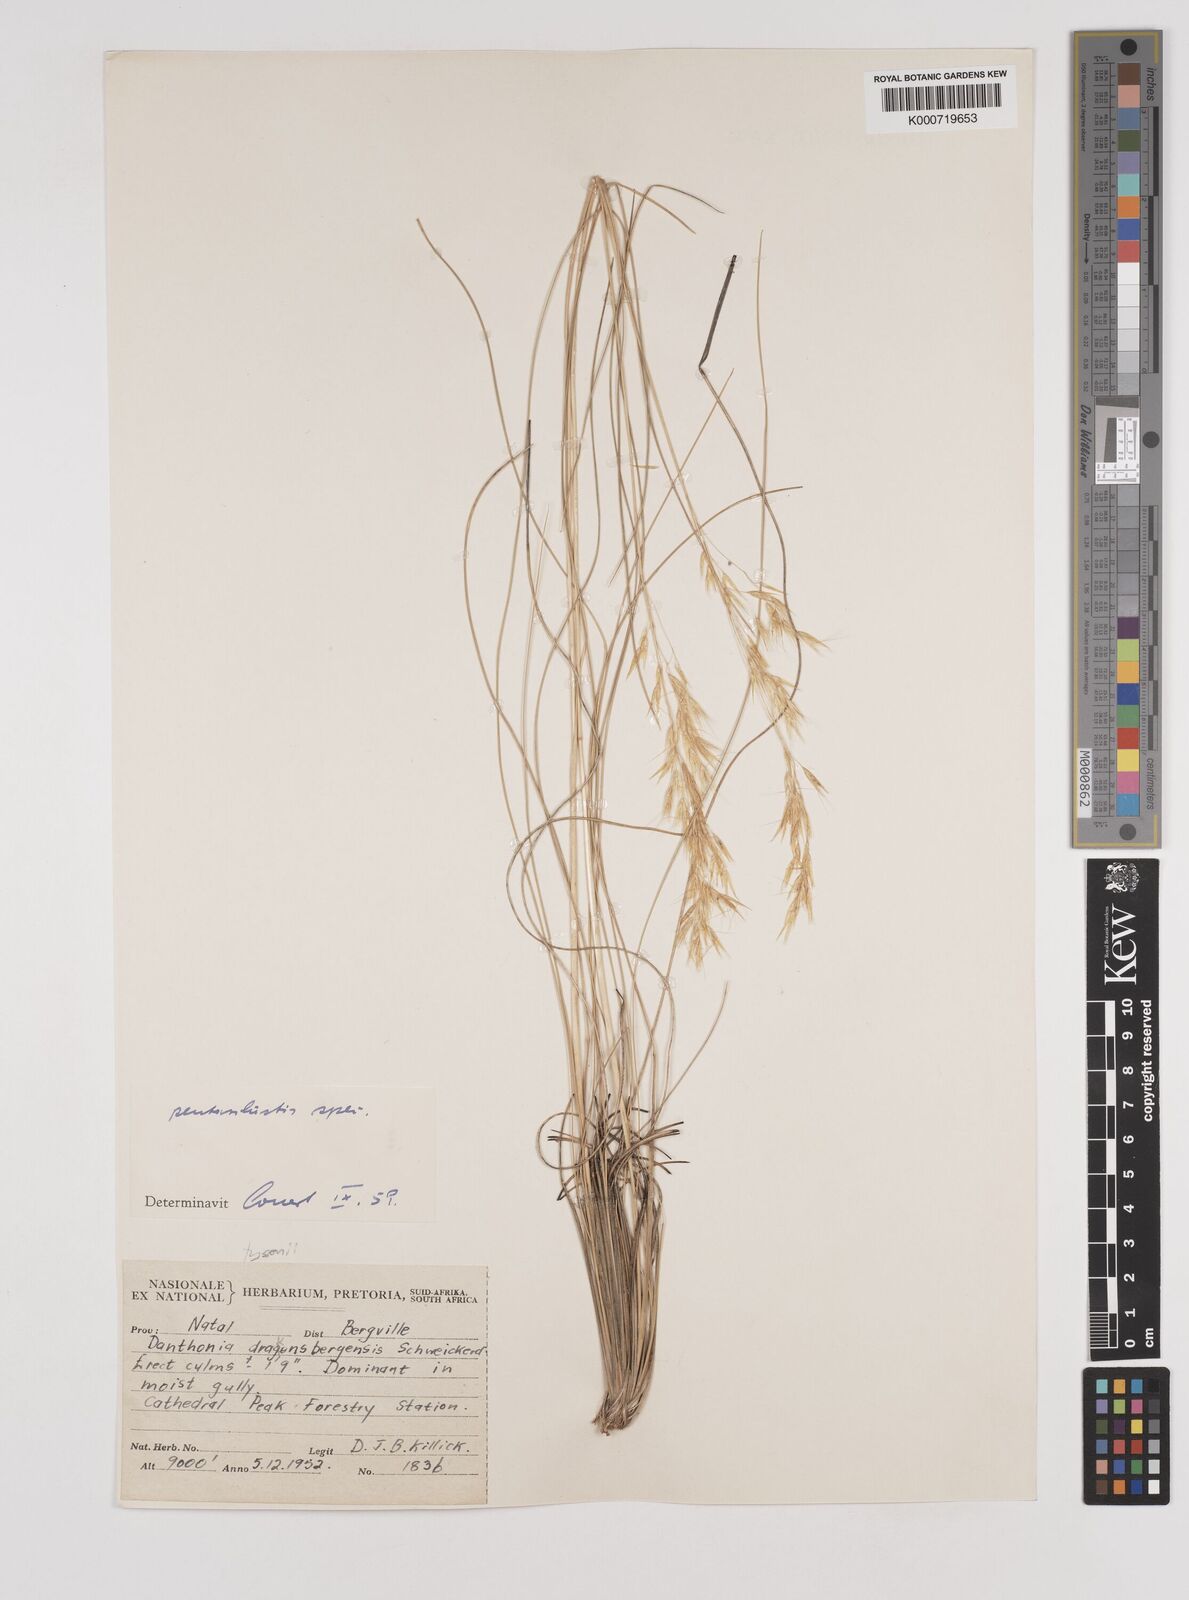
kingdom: Plantae
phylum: Tracheophyta
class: Liliopsida
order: Poales
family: Poaceae
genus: Pentameris
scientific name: Pentameris tysonii
